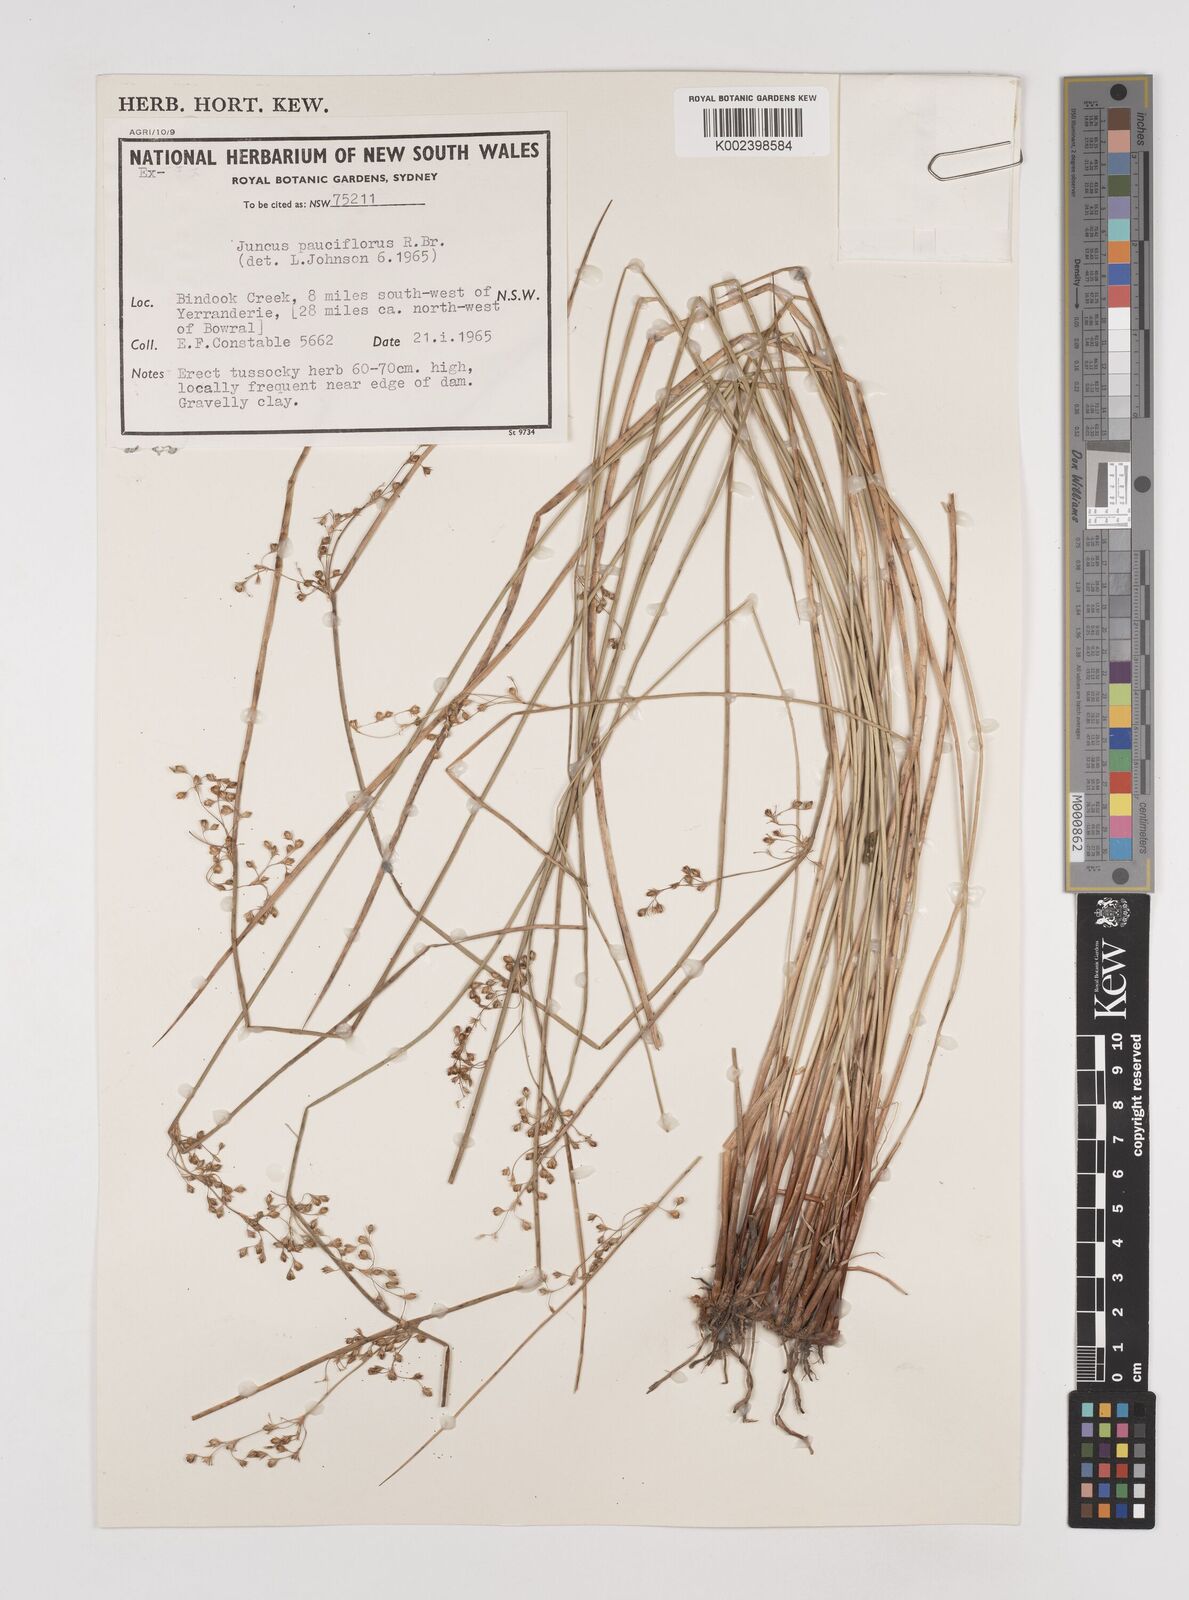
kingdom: Plantae
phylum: Tracheophyta
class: Liliopsida
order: Poales
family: Juncaceae
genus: Juncus
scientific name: Juncus pauciflorus
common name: Loose-flowered rush
